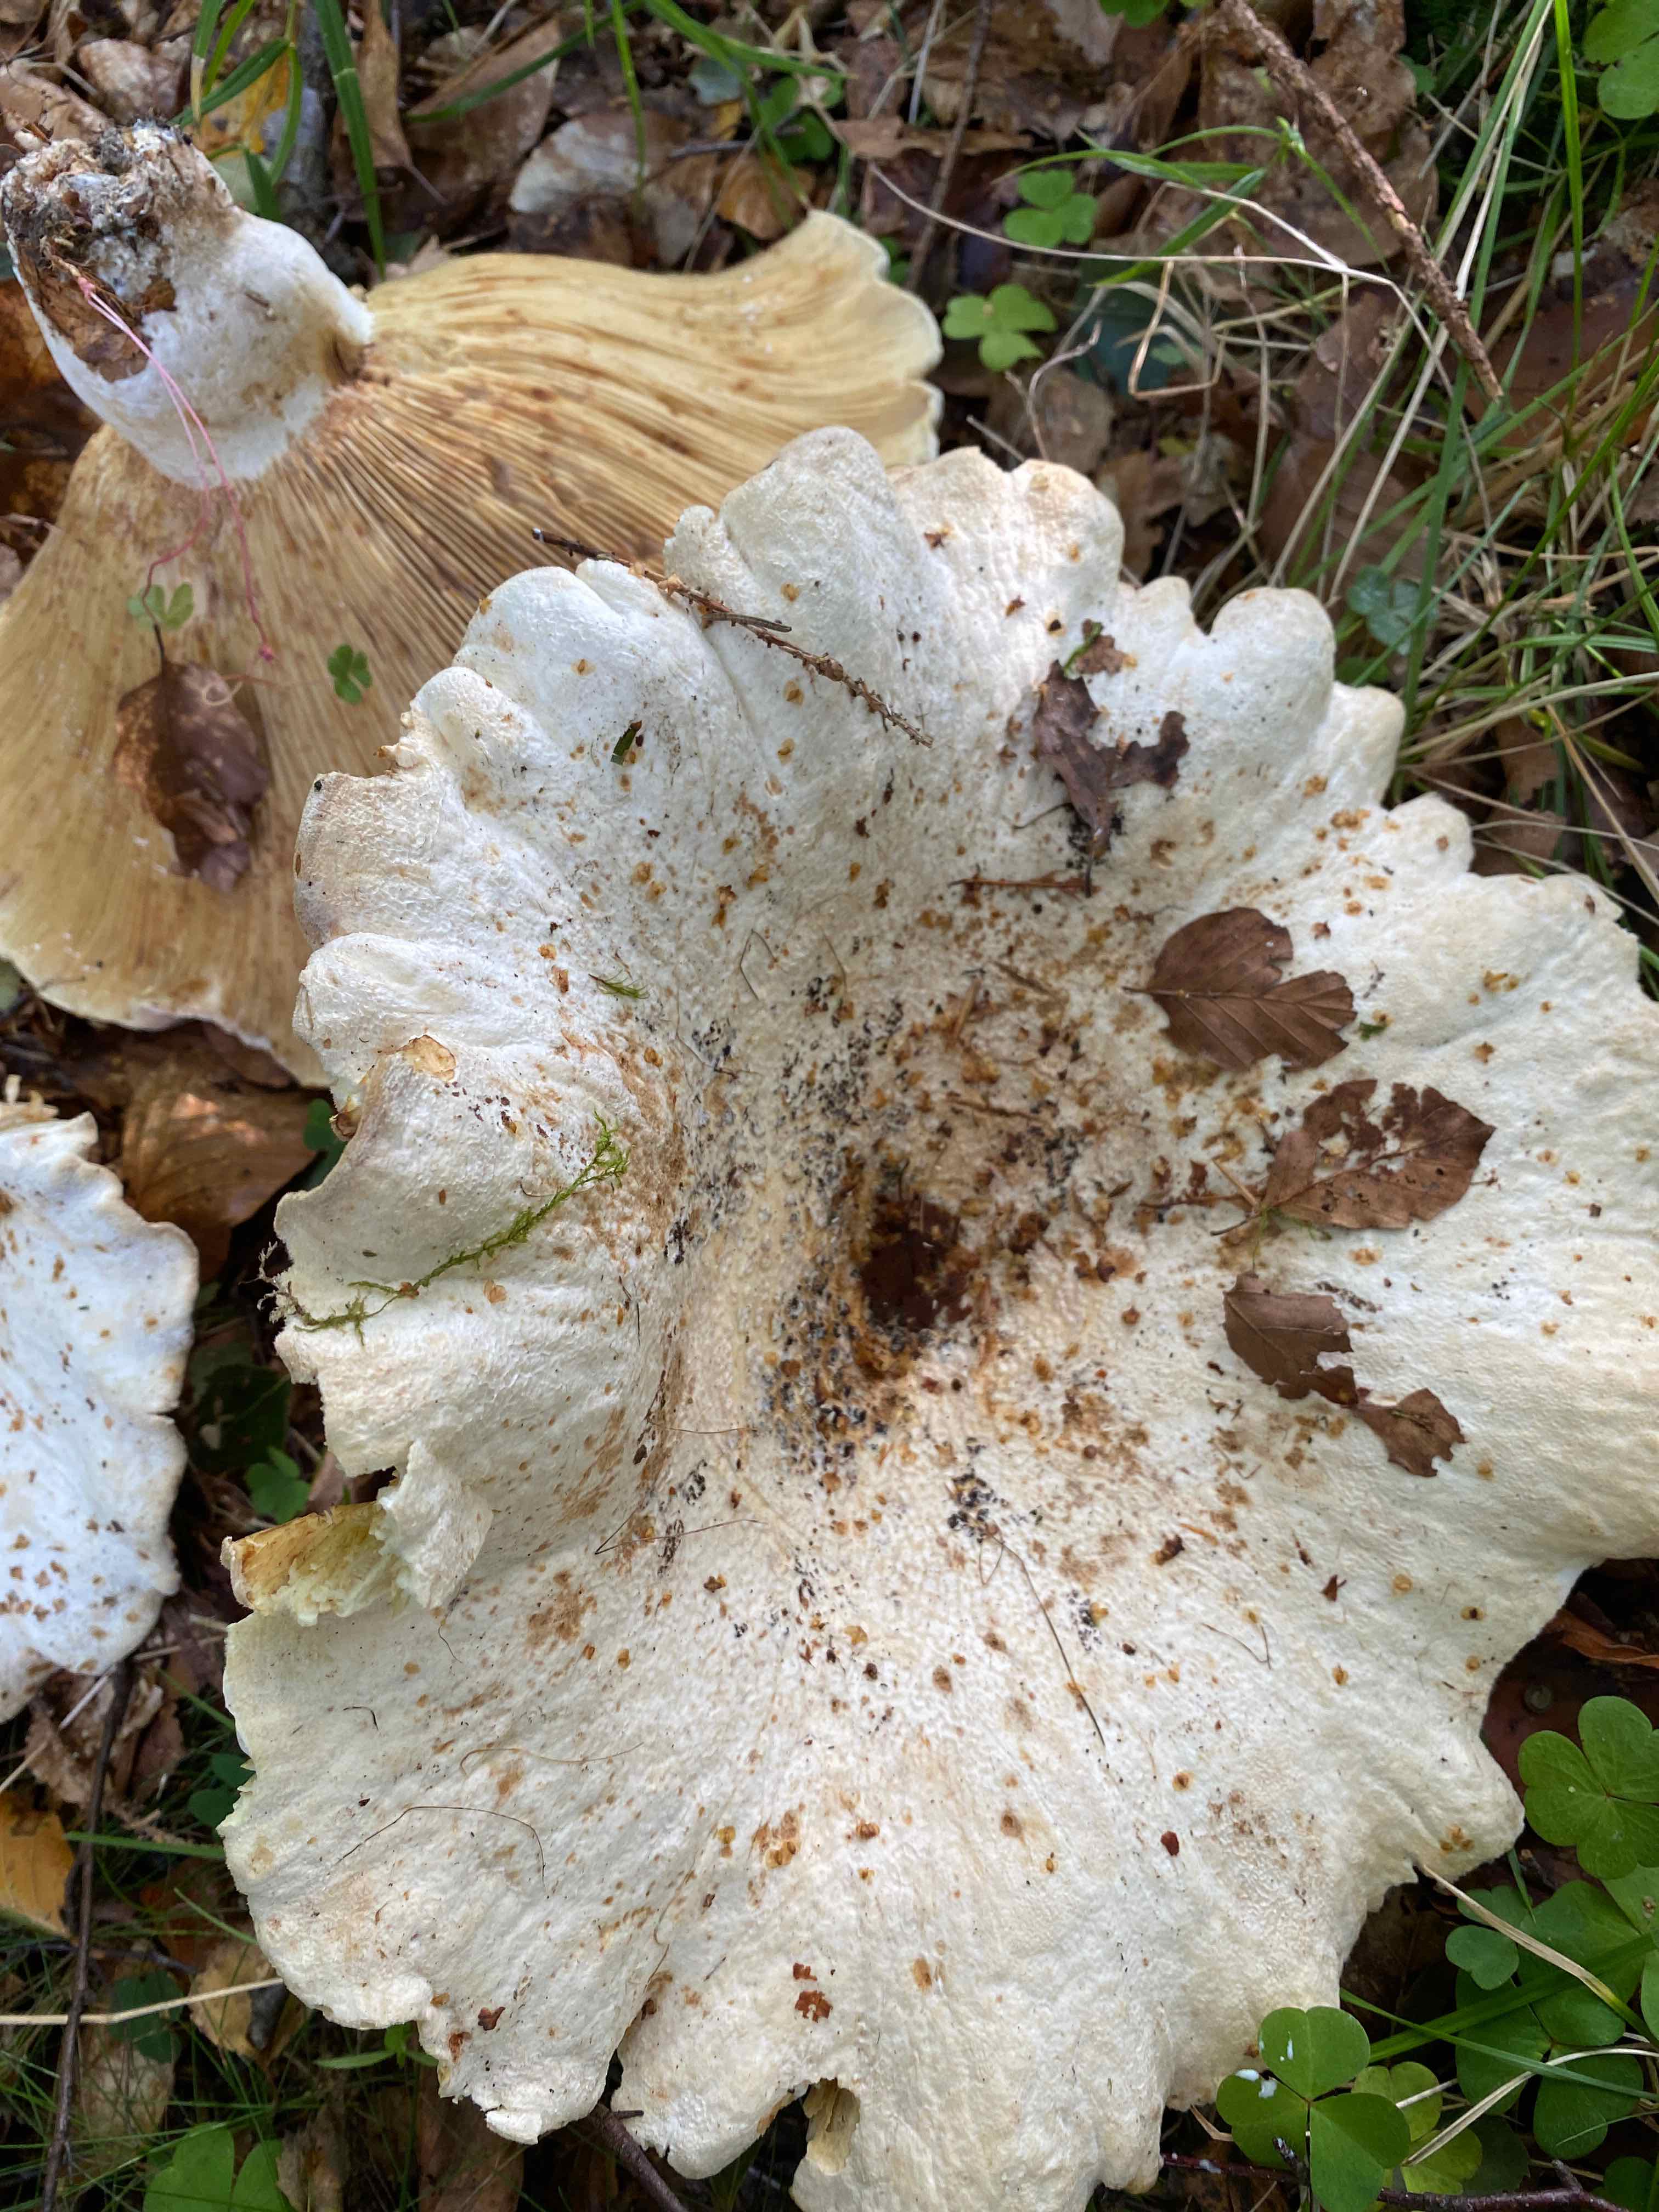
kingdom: Fungi
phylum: Basidiomycota
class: Agaricomycetes
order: Russulales
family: Russulaceae
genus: Lactifluus
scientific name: Lactifluus
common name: mælkehat
